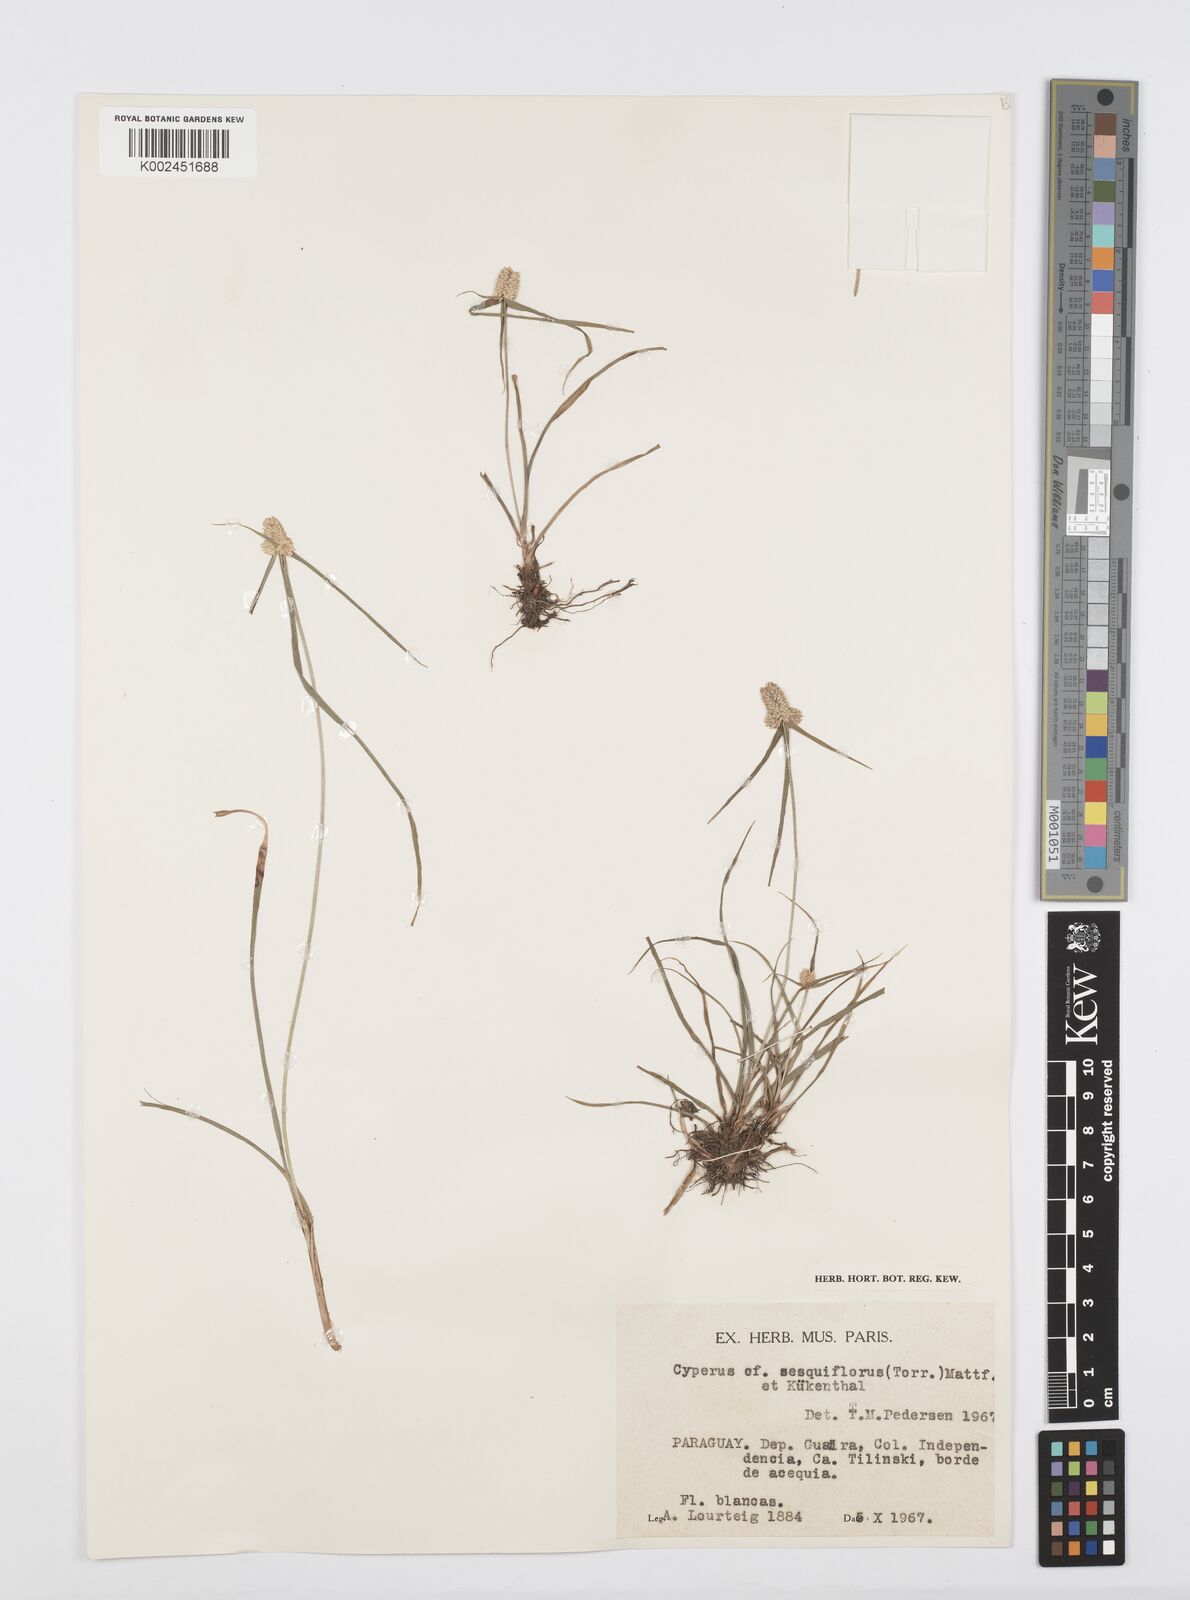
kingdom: Plantae
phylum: Tracheophyta
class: Liliopsida
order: Poales
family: Cyperaceae
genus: Cyperus
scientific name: Cyperus
